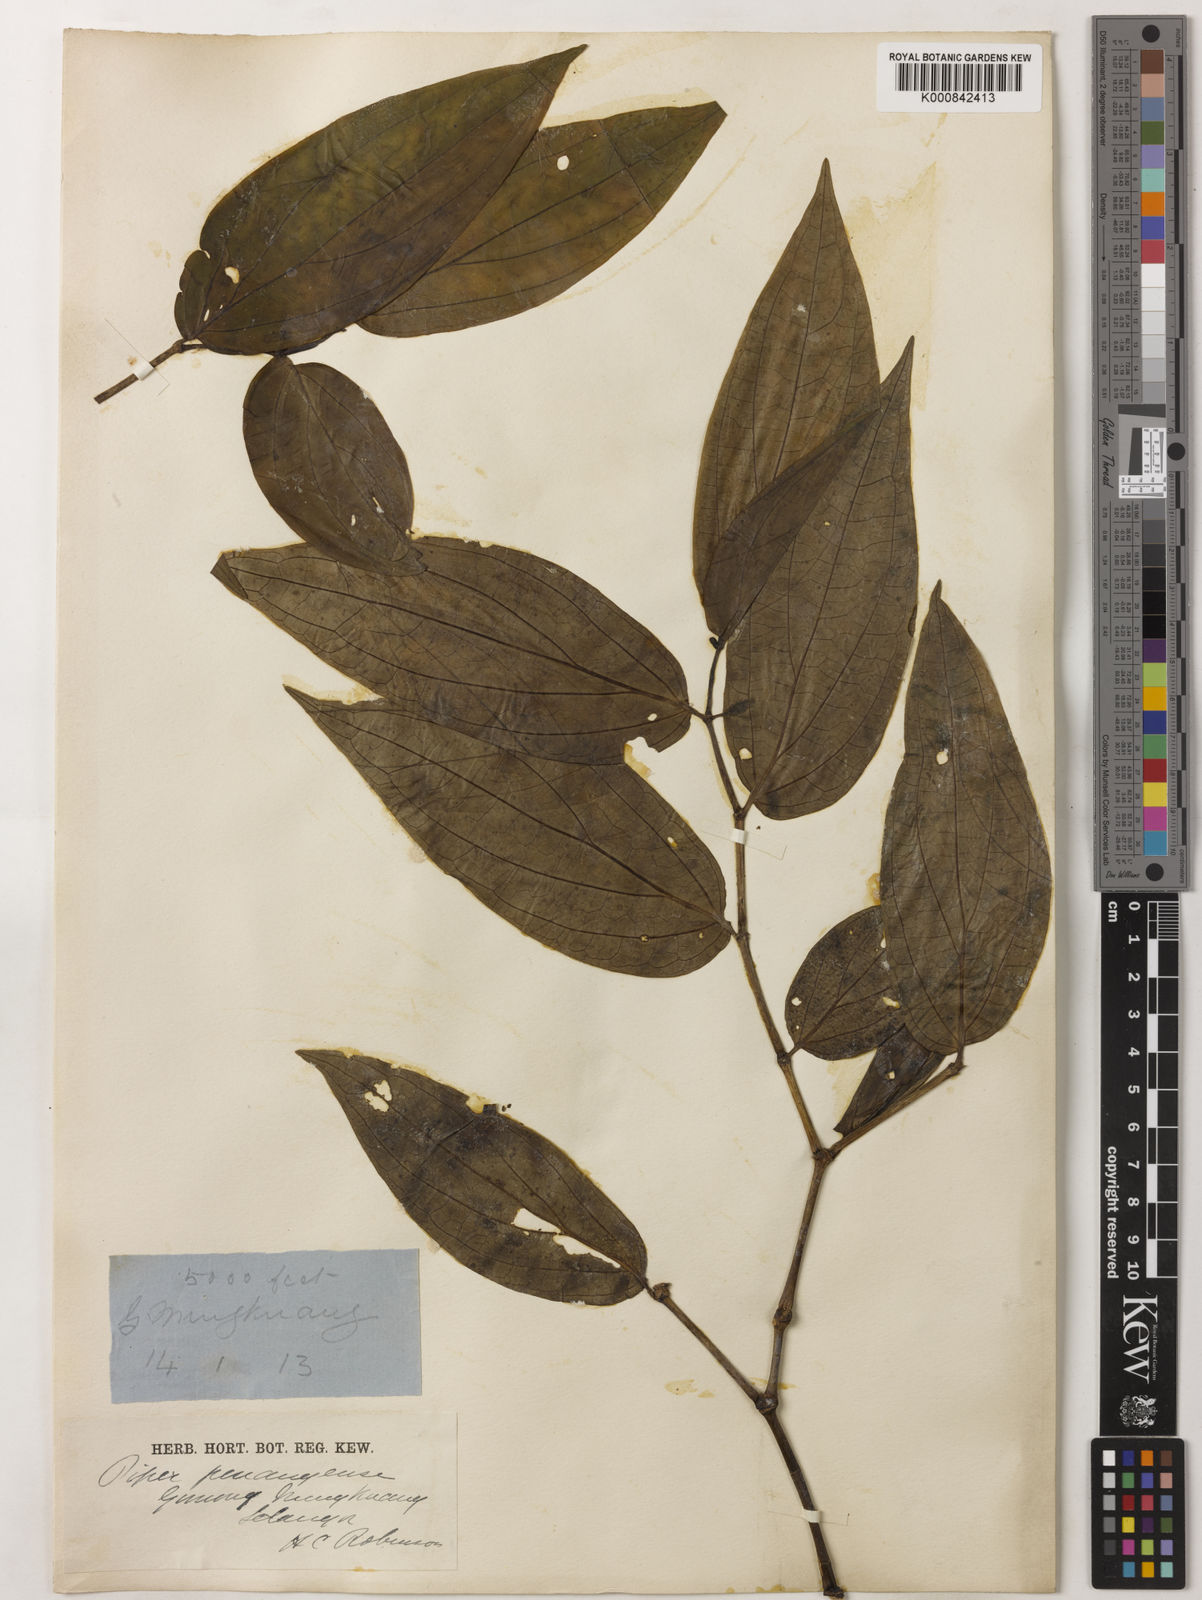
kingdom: Plantae
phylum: Tracheophyta
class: Magnoliopsida
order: Piperales
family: Piperaceae
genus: Piper
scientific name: Piper penangense
